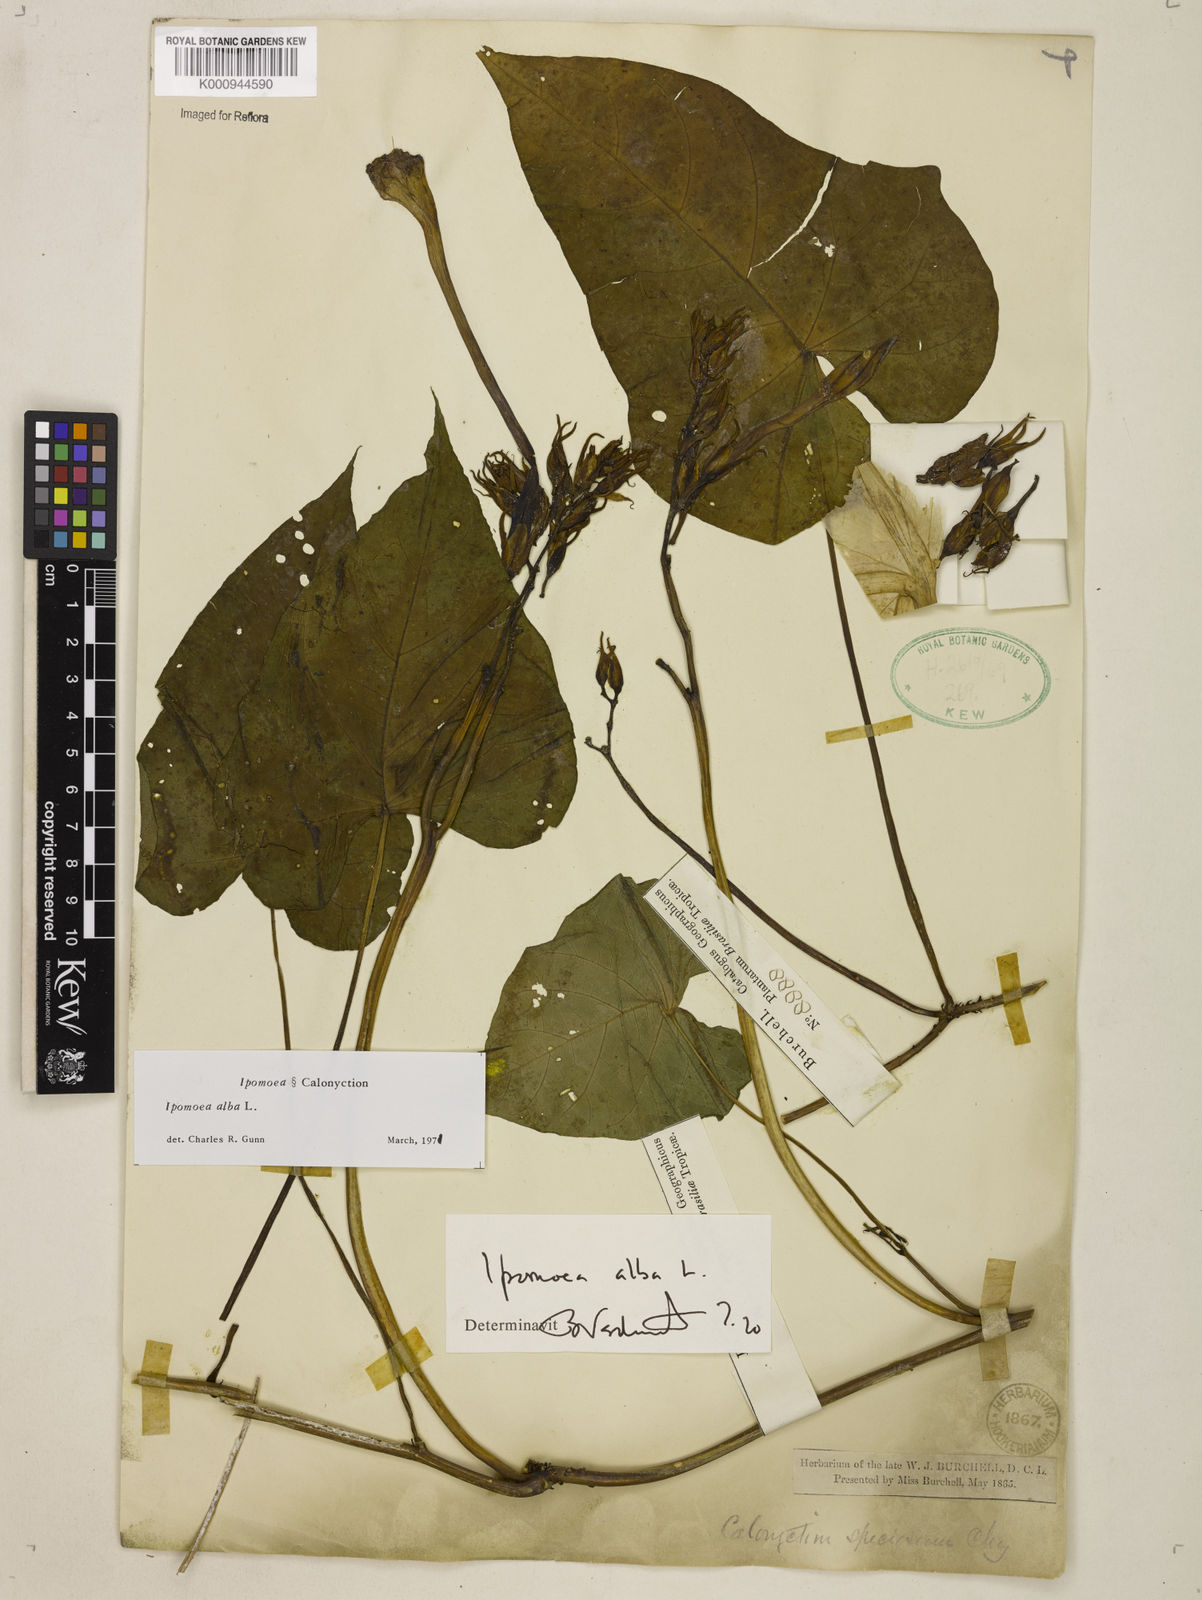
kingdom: Plantae
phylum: Tracheophyta
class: Magnoliopsida
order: Solanales
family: Convolvulaceae
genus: Ipomoea
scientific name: Ipomoea alba
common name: Moonflower
